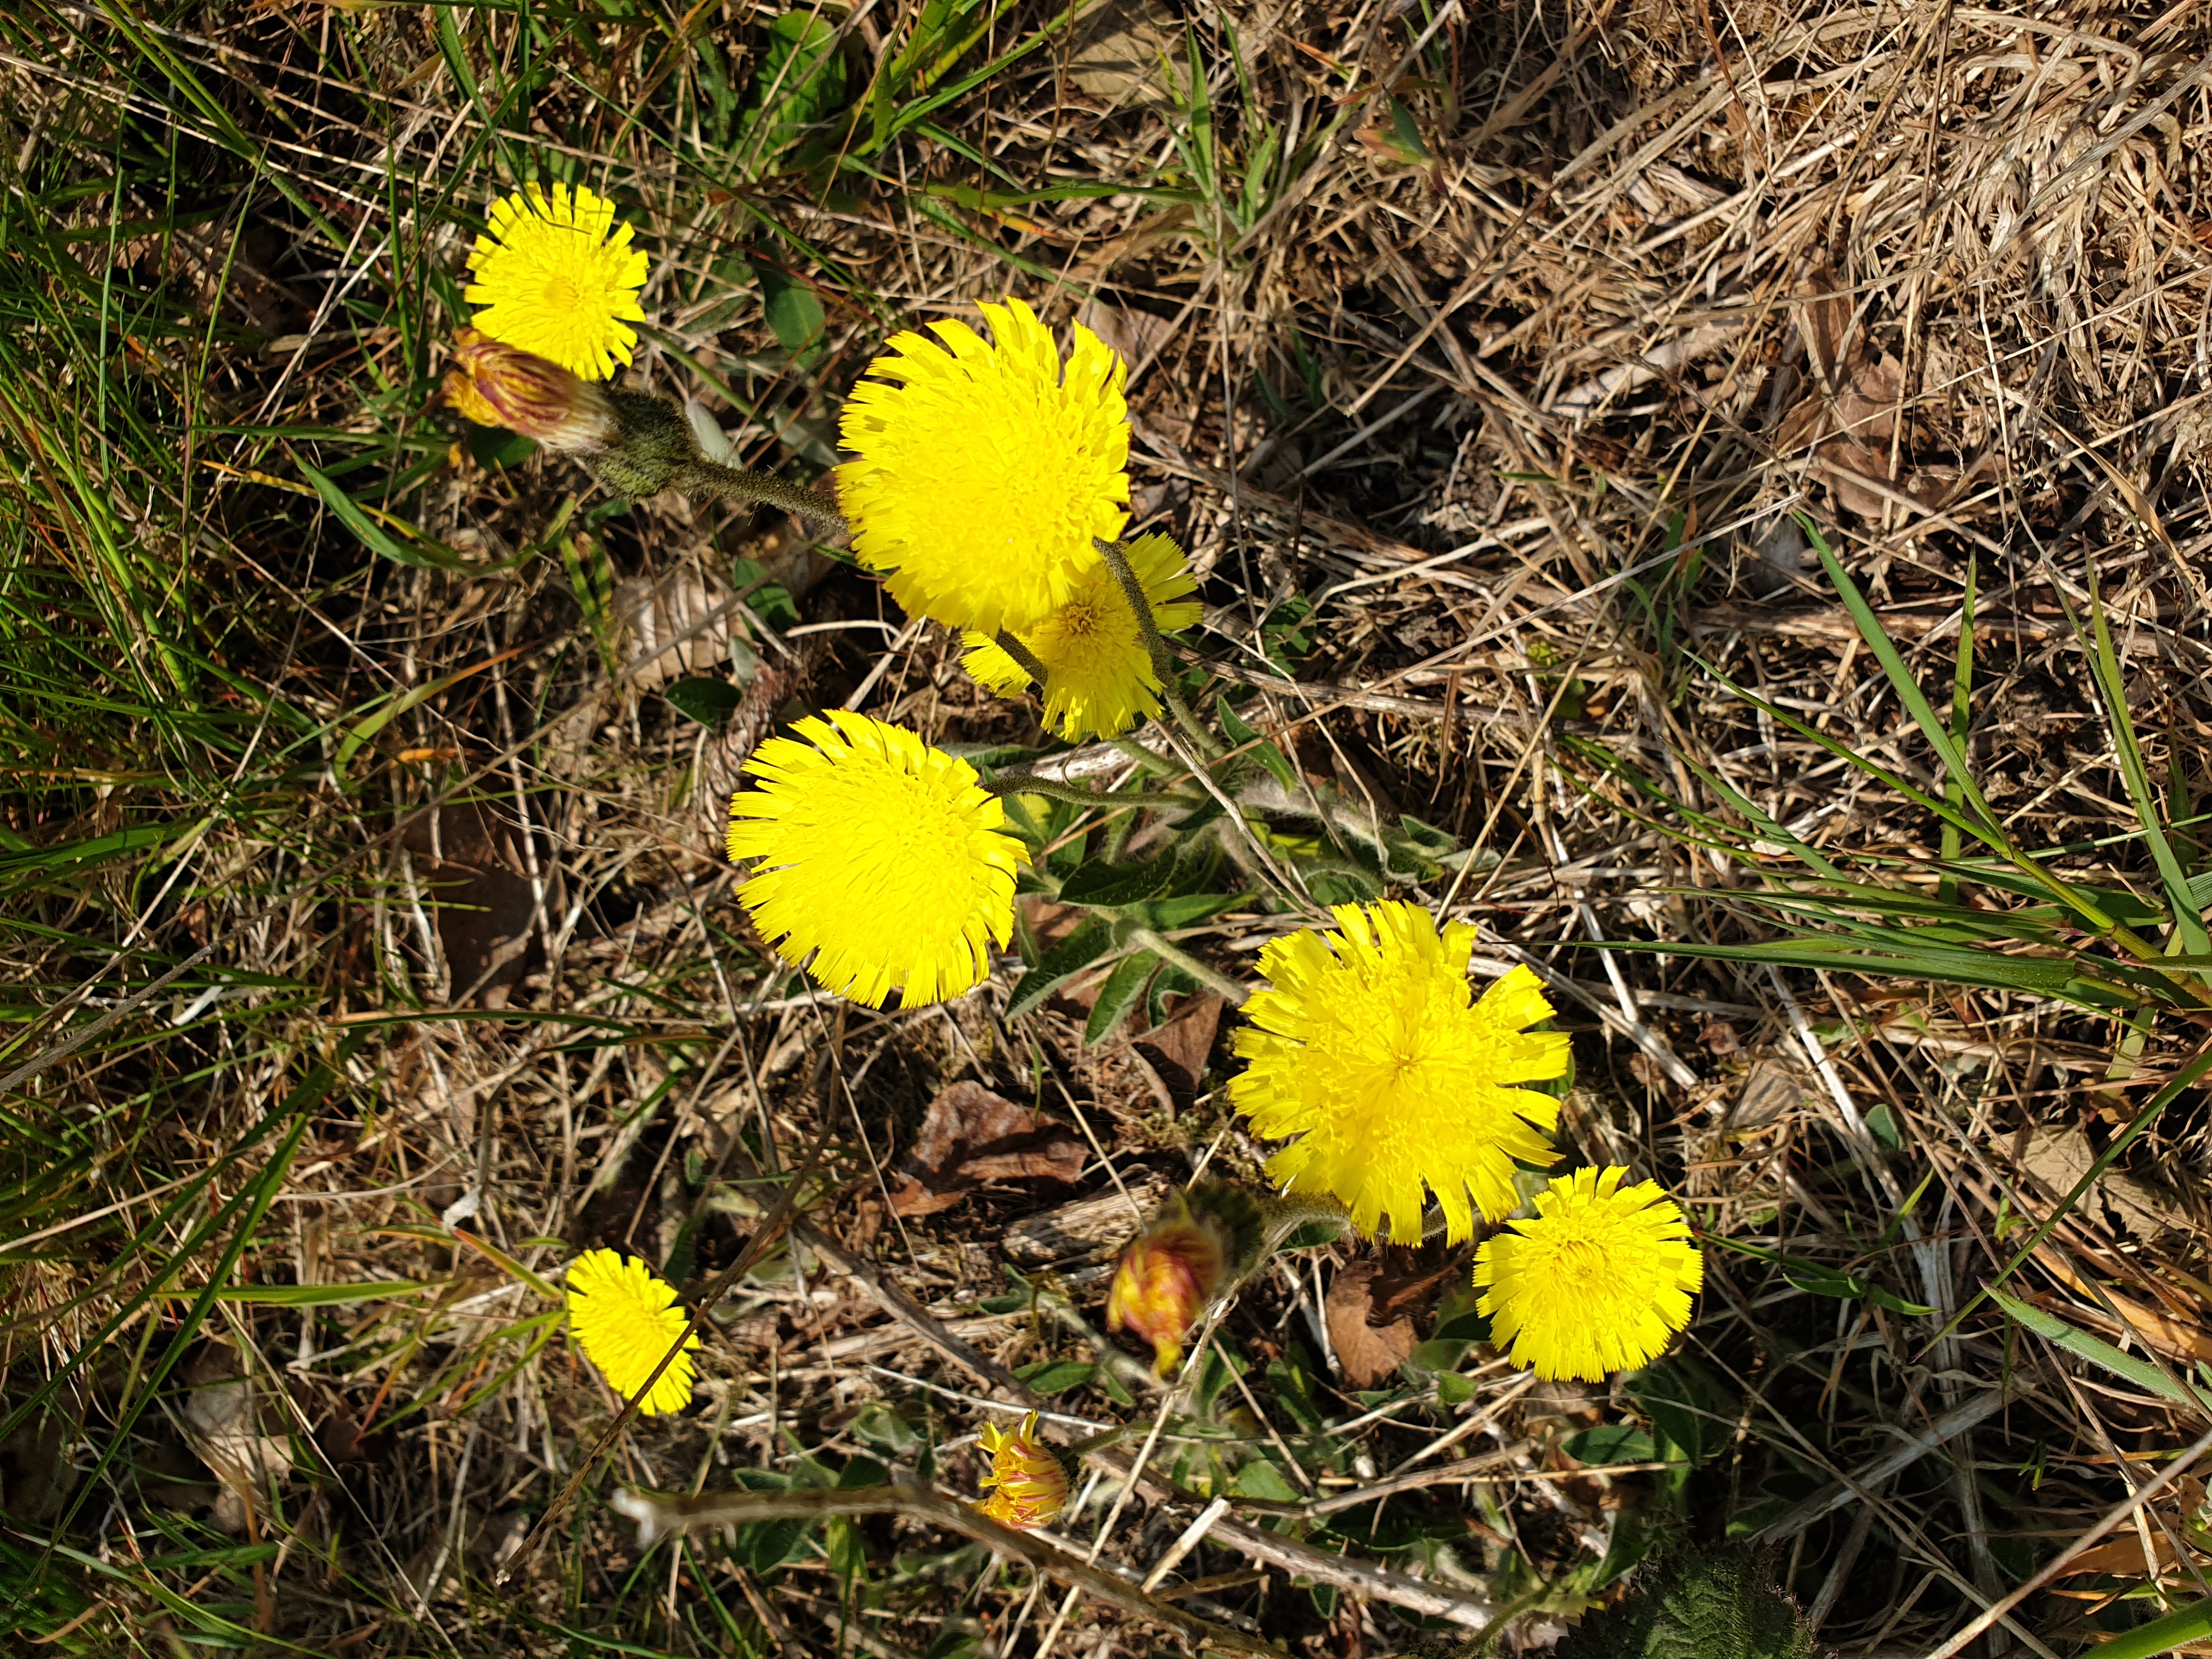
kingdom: Plantae
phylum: Tracheophyta
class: Magnoliopsida
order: Asterales
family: Asteraceae
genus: Pilosella
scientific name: Pilosella officinarum
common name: Håret høgeurt
